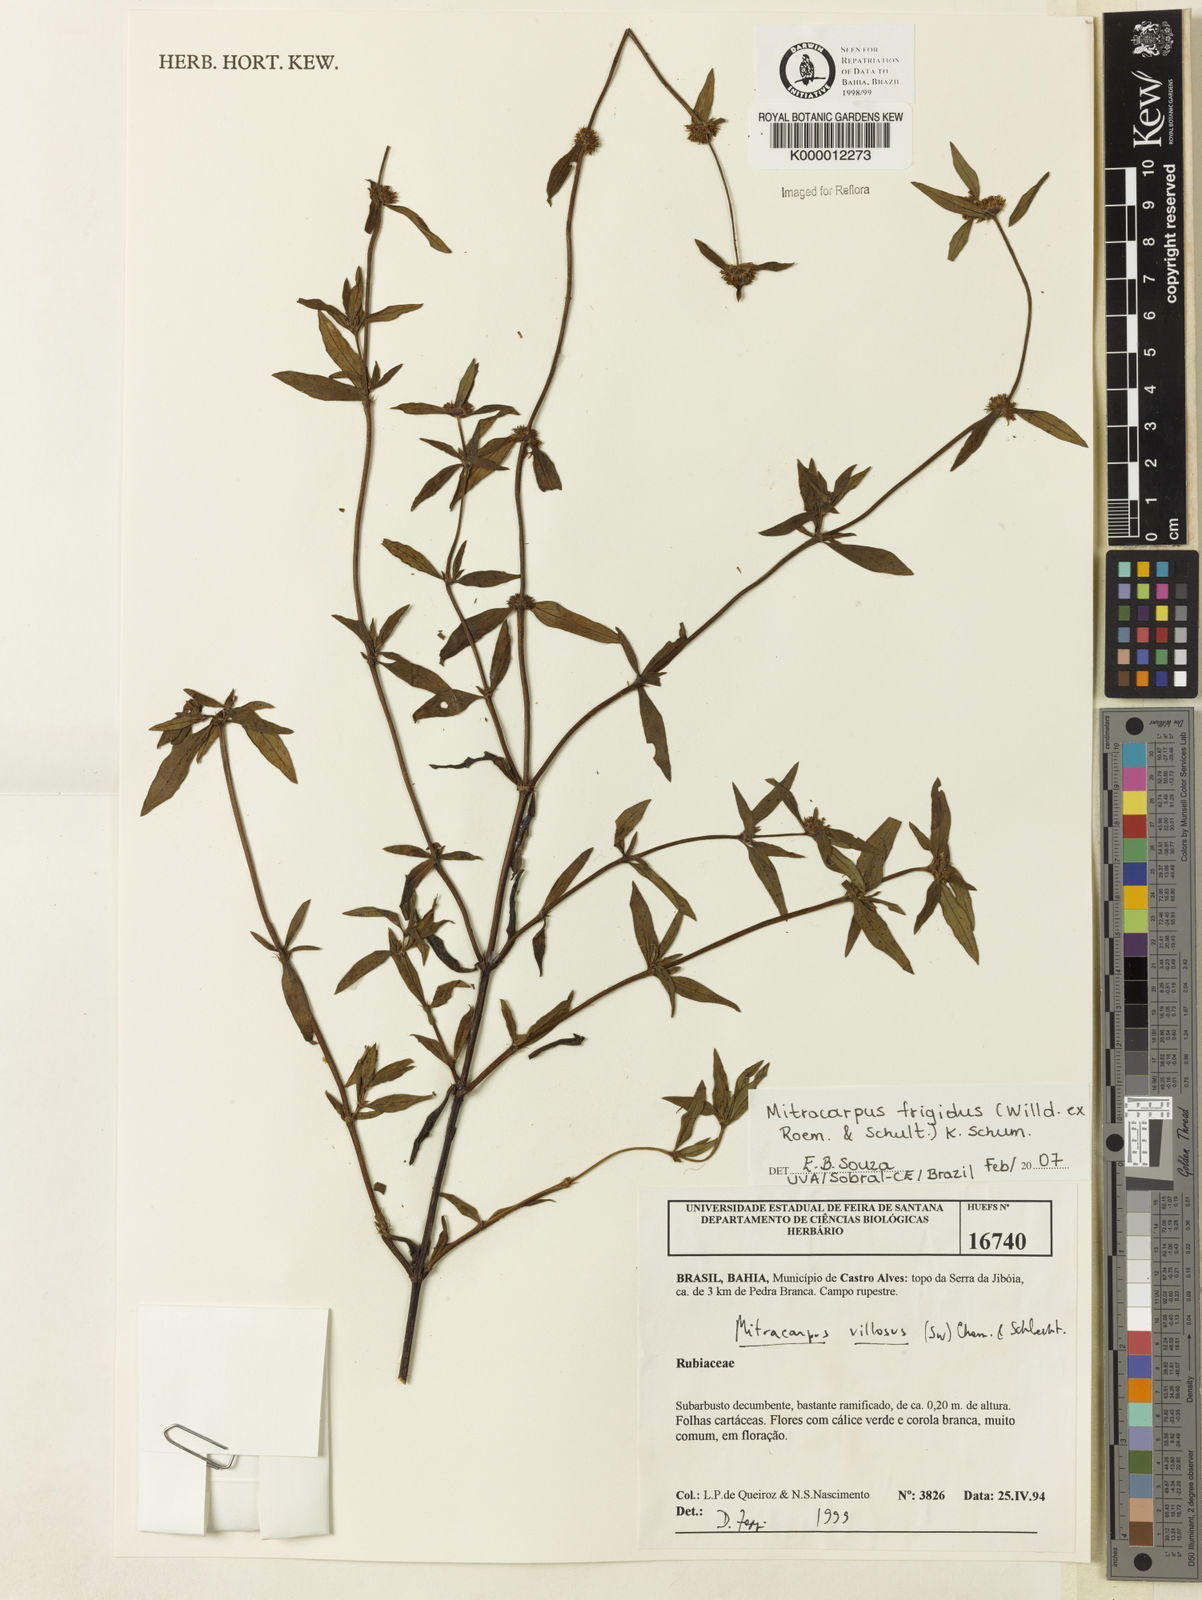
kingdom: Plantae
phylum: Tracheophyta
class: Magnoliopsida
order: Gentianales
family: Rubiaceae
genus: Mitracarpus
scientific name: Mitracarpus frigidus
